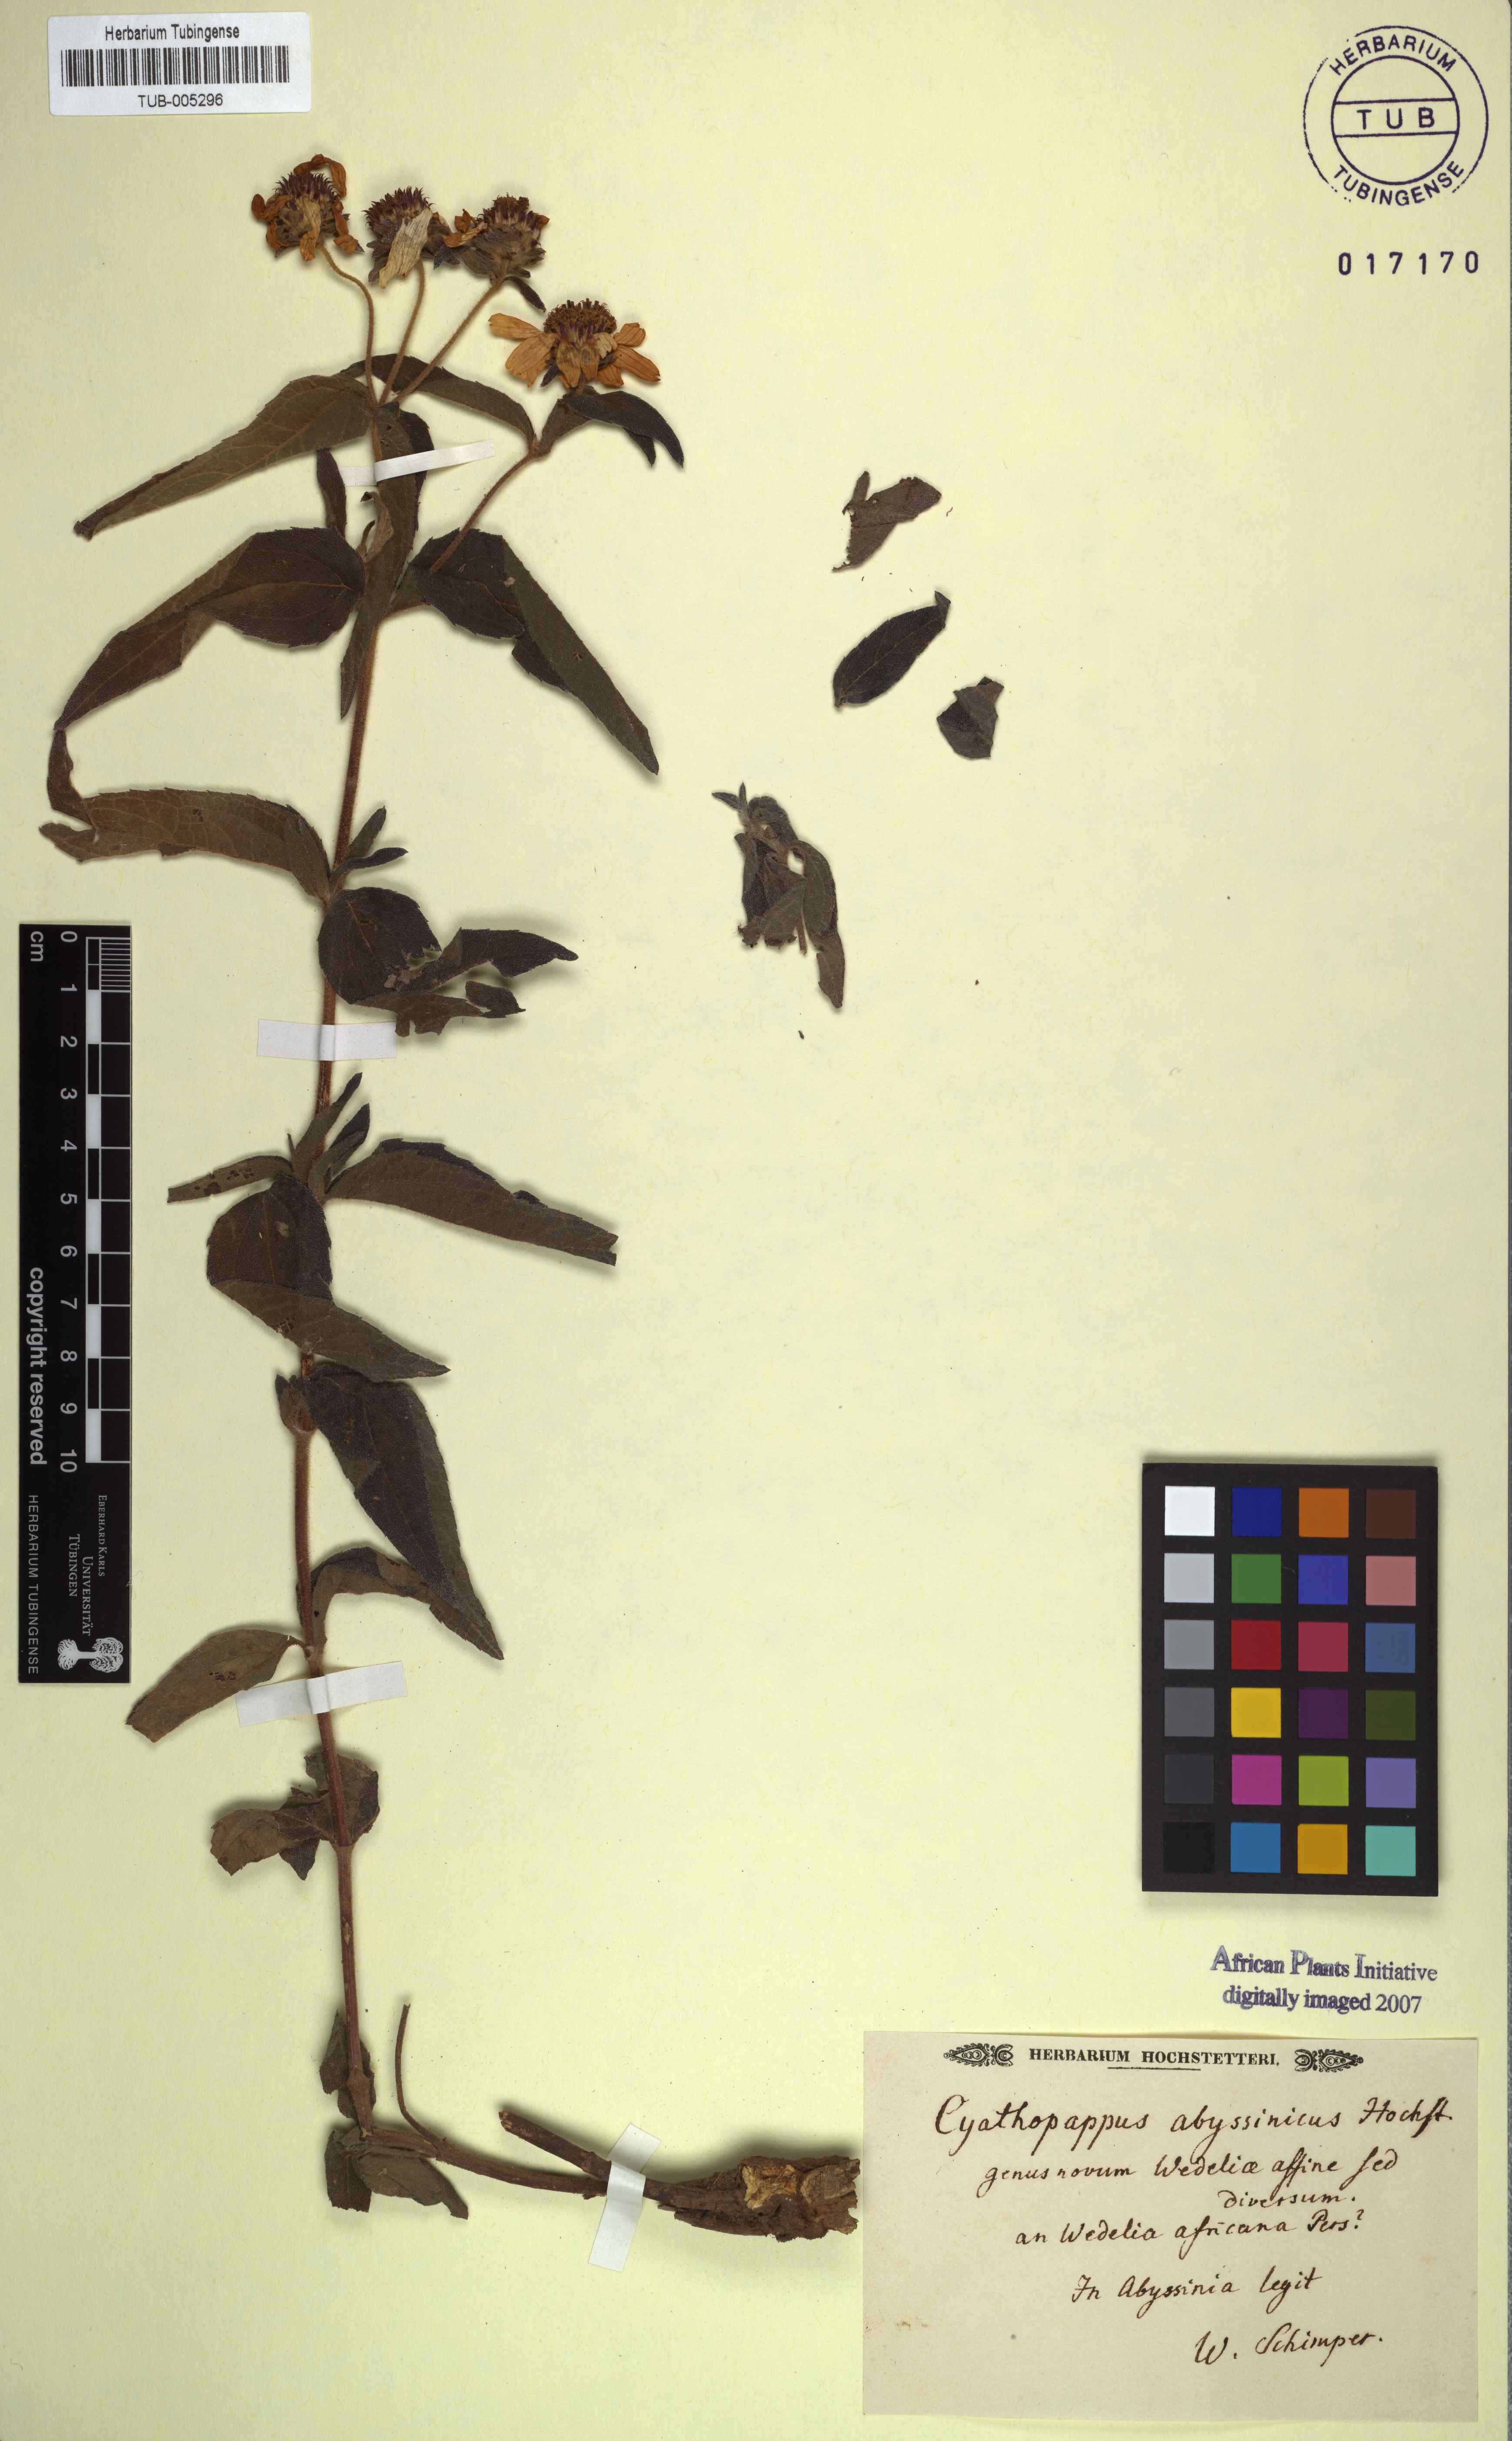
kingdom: Plantae
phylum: Tracheophyta
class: Magnoliopsida
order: Asterales
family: Asteraceae
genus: Elytropappus
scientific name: Elytropappus
